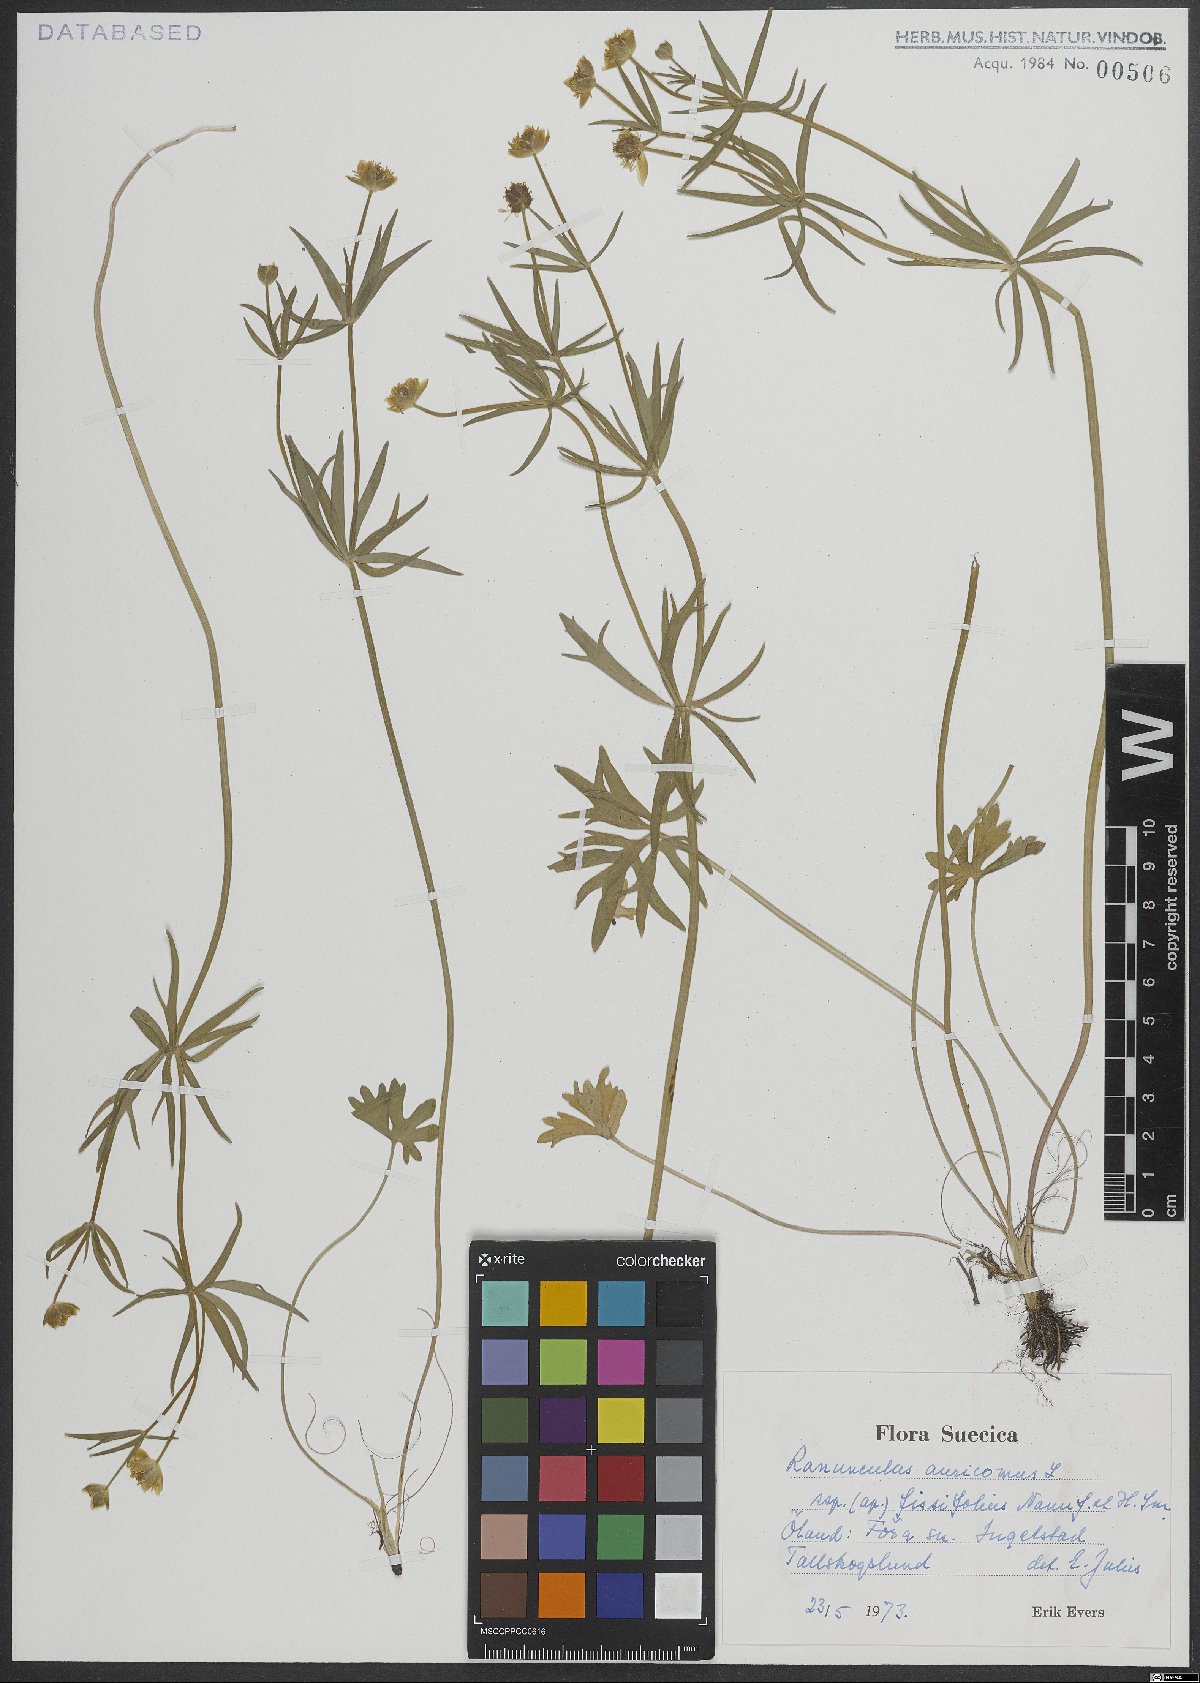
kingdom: Plantae
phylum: Tracheophyta
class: Magnoliopsida
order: Ranunculales
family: Ranunculaceae
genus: Ranunculus
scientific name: Ranunculus auricomus
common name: Goldilocks buttercup
